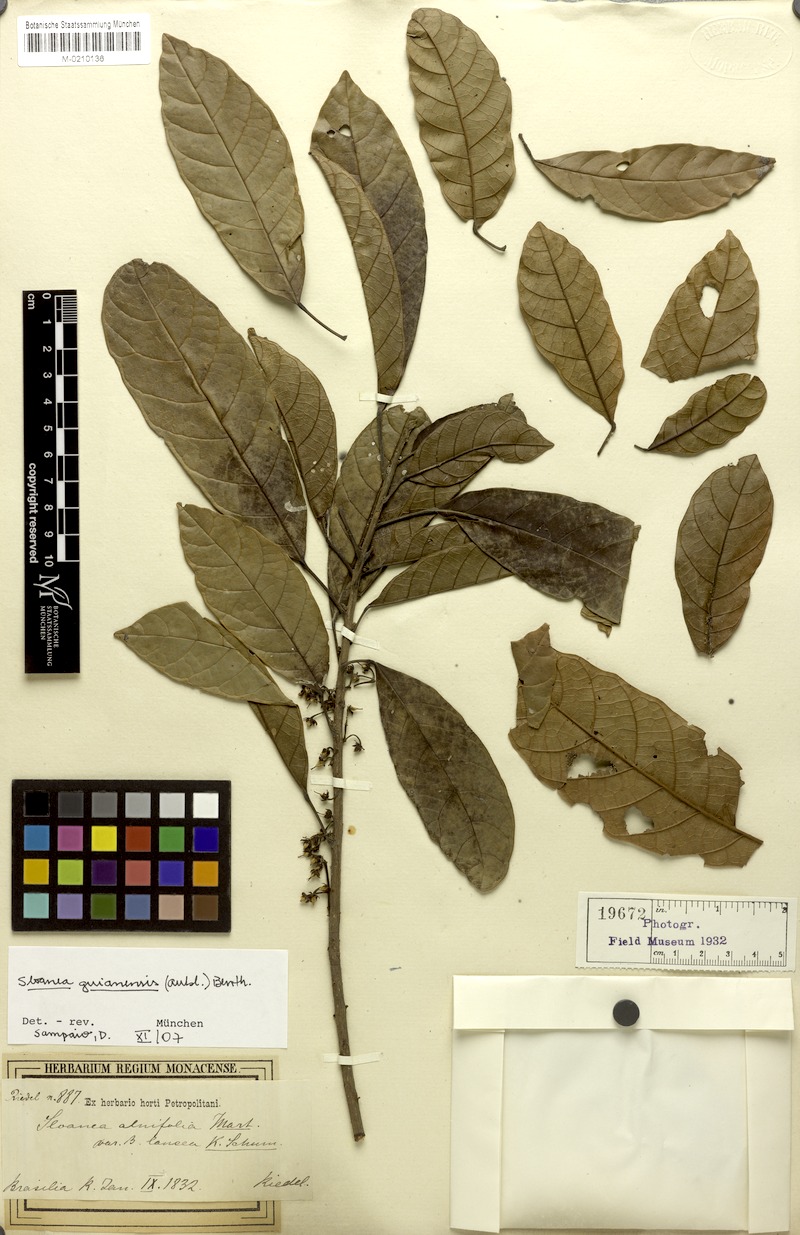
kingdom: Plantae
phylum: Tracheophyta
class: Magnoliopsida
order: Oxalidales
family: Elaeocarpaceae
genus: Sloanea
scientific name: Sloanea guianensis
